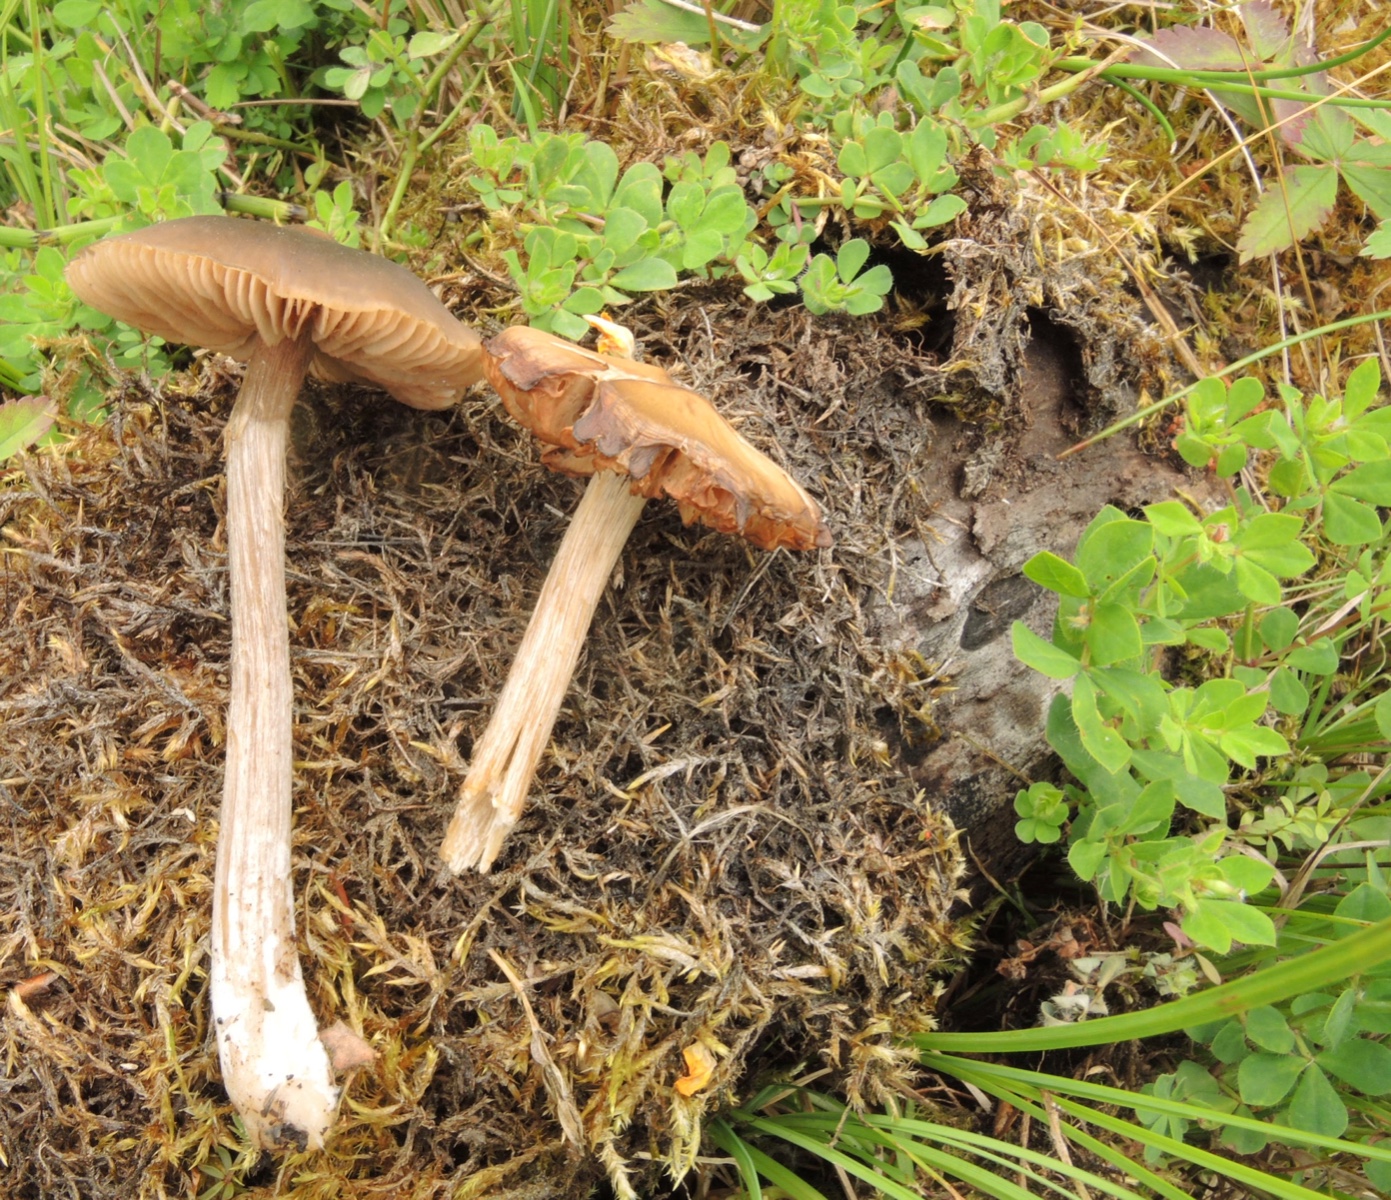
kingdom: Fungi
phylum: Basidiomycota
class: Agaricomycetes
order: Agaricales
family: Entolomataceae
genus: Entocybe
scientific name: Entocybe turbida
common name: plantage-rødblad
